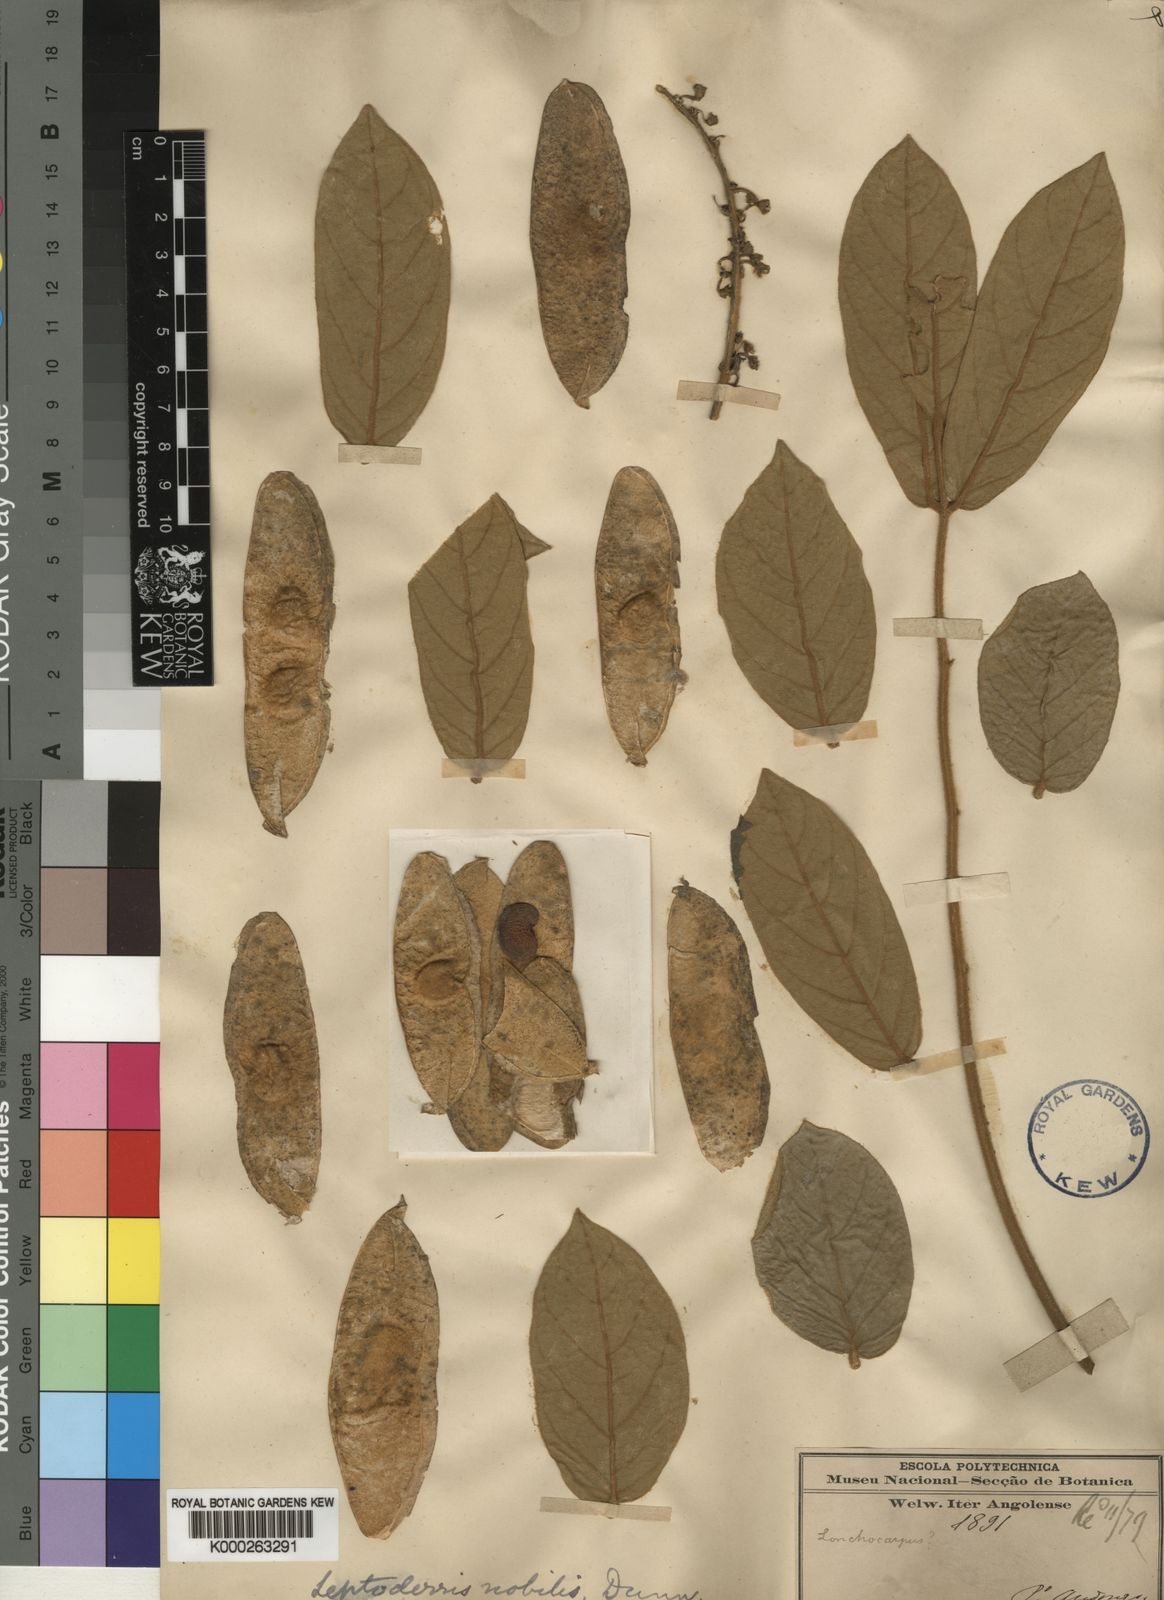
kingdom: Plantae
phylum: Tracheophyta
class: Magnoliopsida
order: Fabales
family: Fabaceae
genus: Leptoderris
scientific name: Leptoderris nobilis
